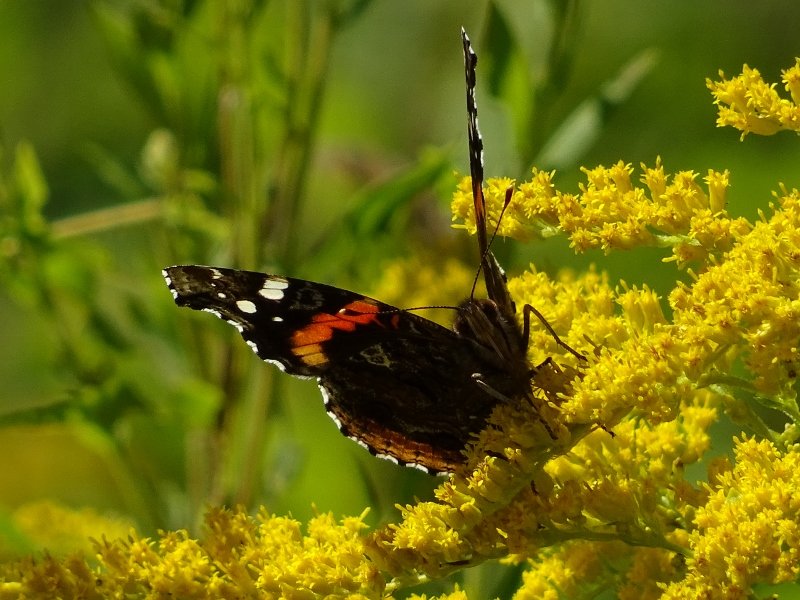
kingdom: Animalia
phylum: Arthropoda
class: Insecta
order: Lepidoptera
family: Nymphalidae
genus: Vanessa
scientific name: Vanessa atalanta
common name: Red Admiral
